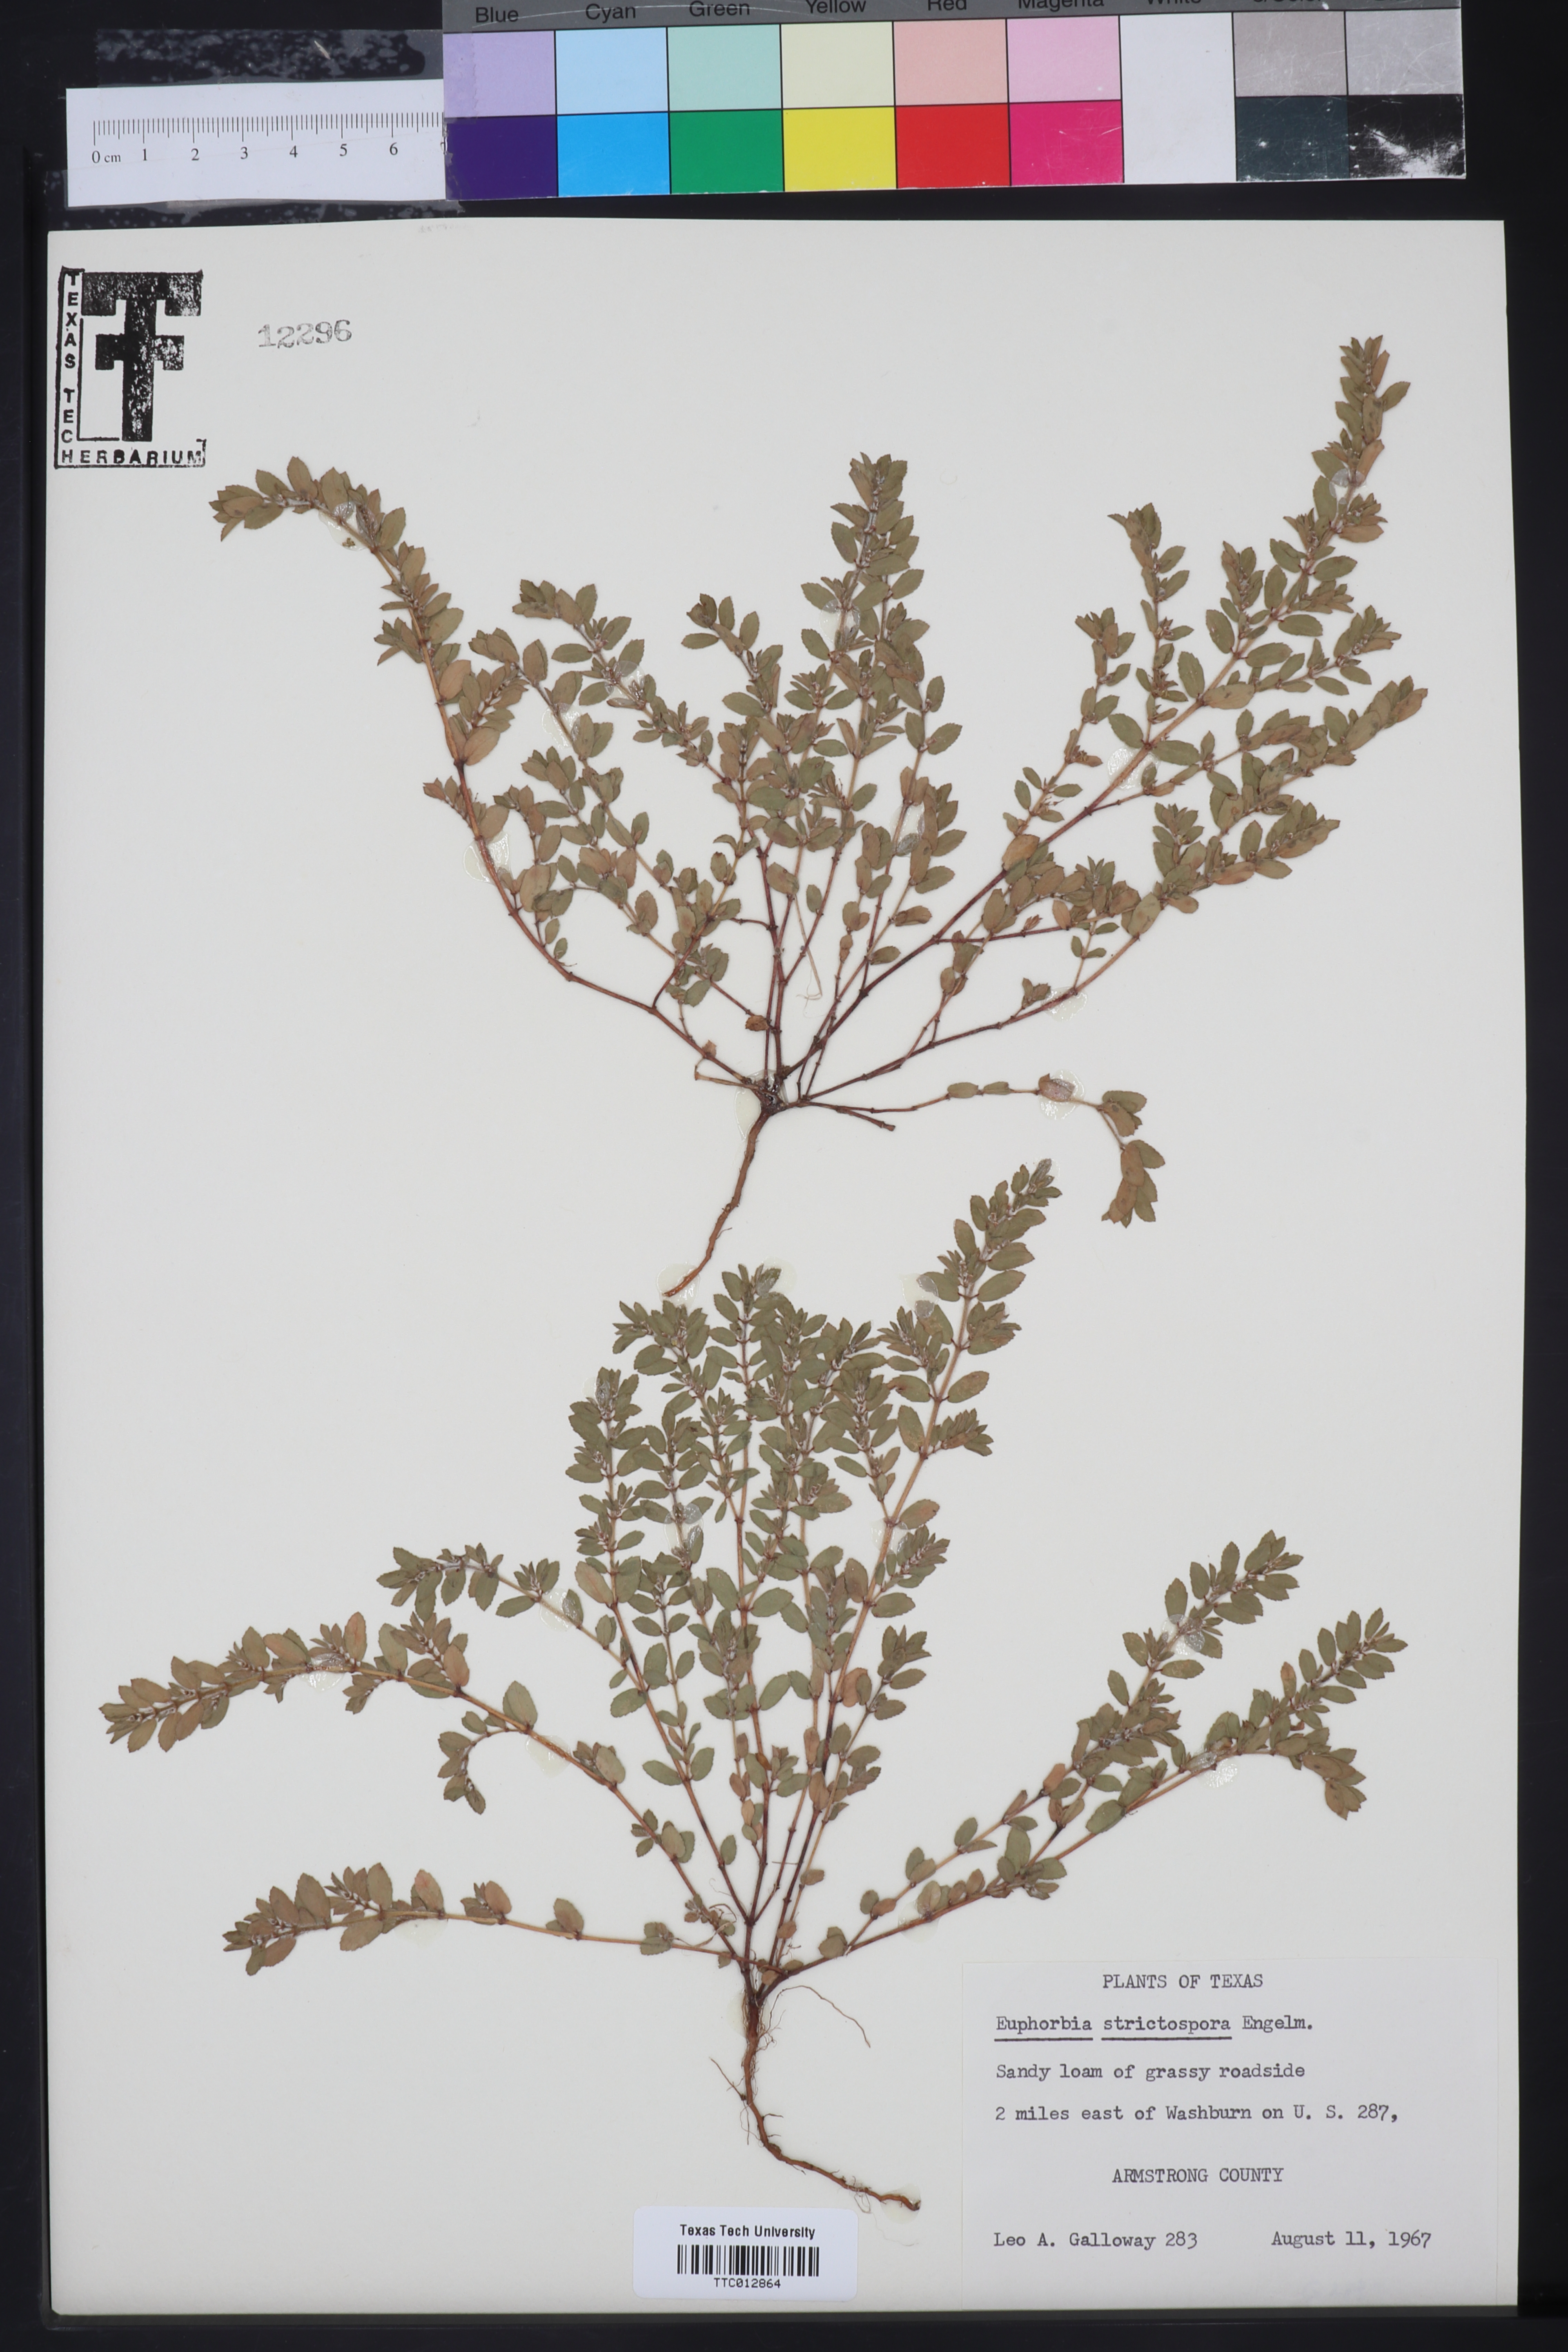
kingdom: Plantae
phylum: Tracheophyta
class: Magnoliopsida
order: Malpighiales
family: Euphorbiaceae
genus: Euphorbia
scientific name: Euphorbia
